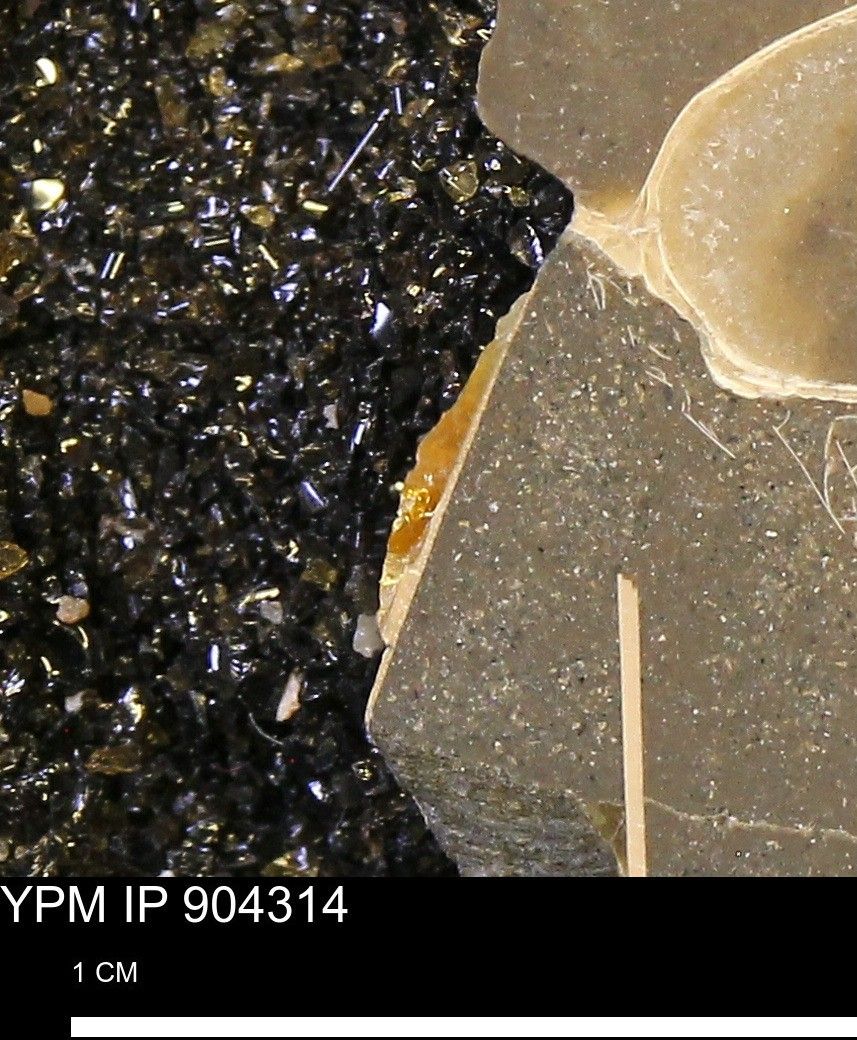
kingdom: Animalia
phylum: Mollusca
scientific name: Mollusca
